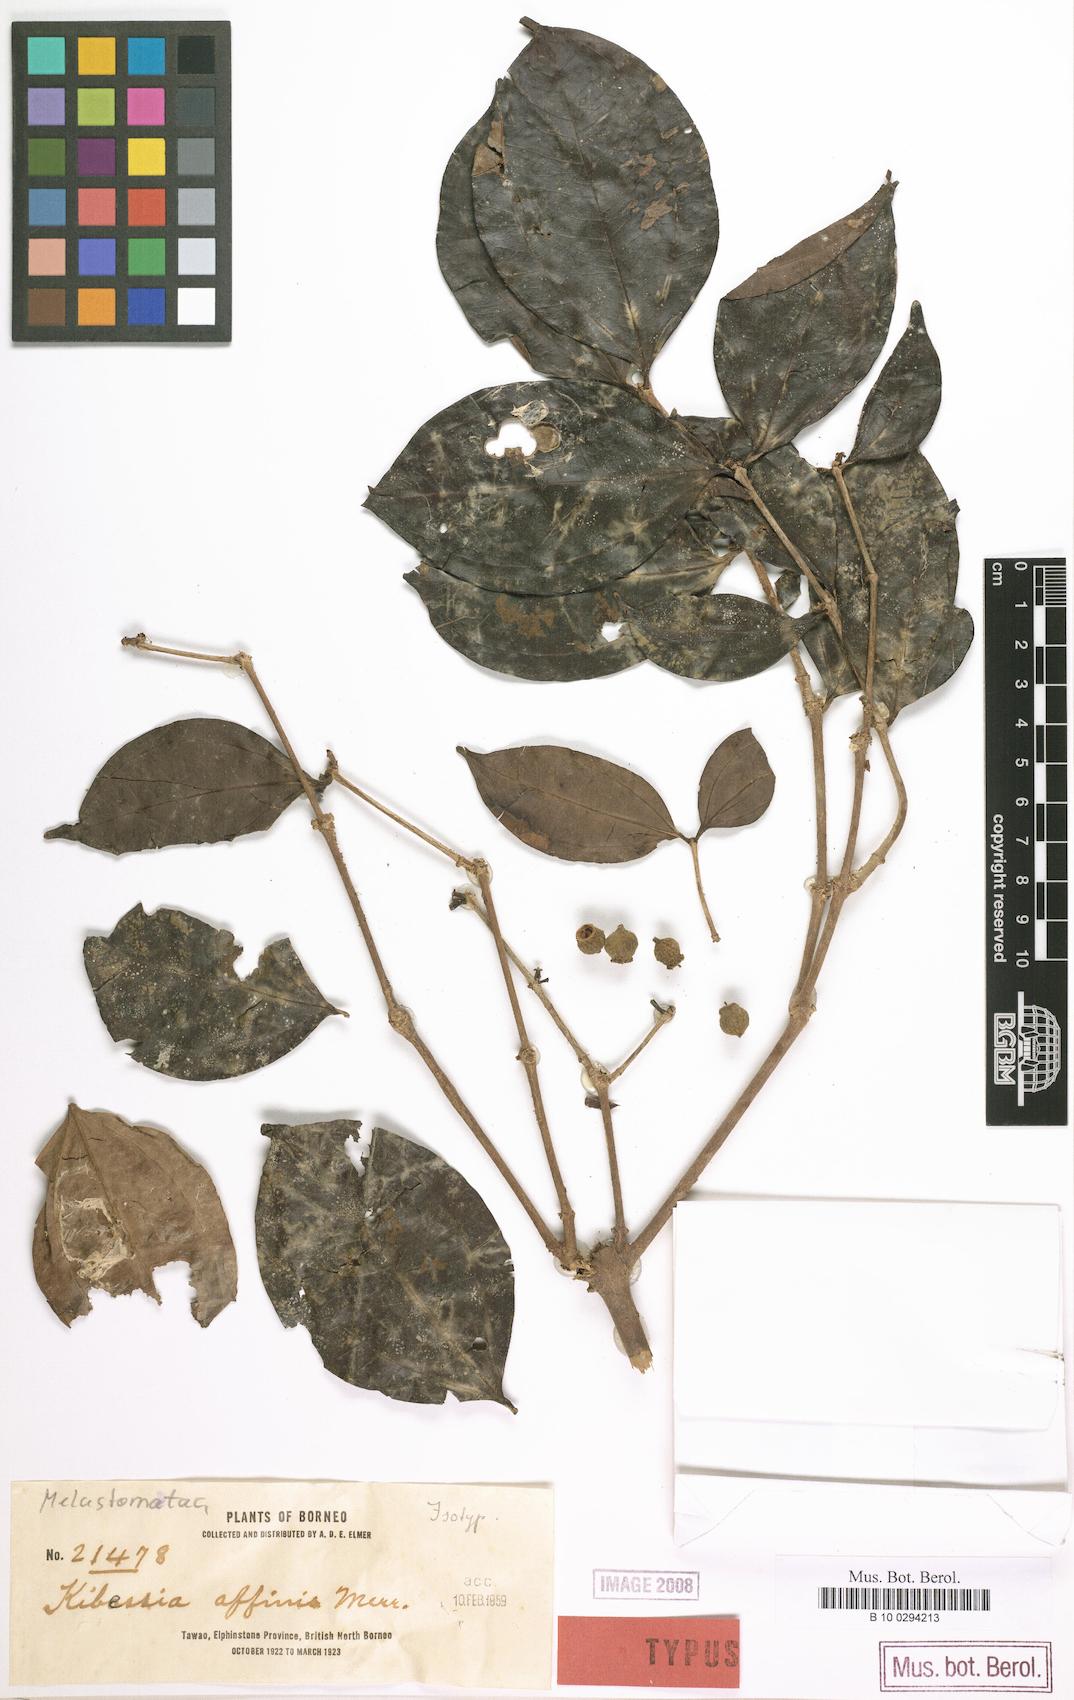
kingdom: Plantae
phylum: Tracheophyta
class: Magnoliopsida
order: Myrtales
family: Melastomataceae
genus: Pternandra
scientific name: Pternandra rostrata
